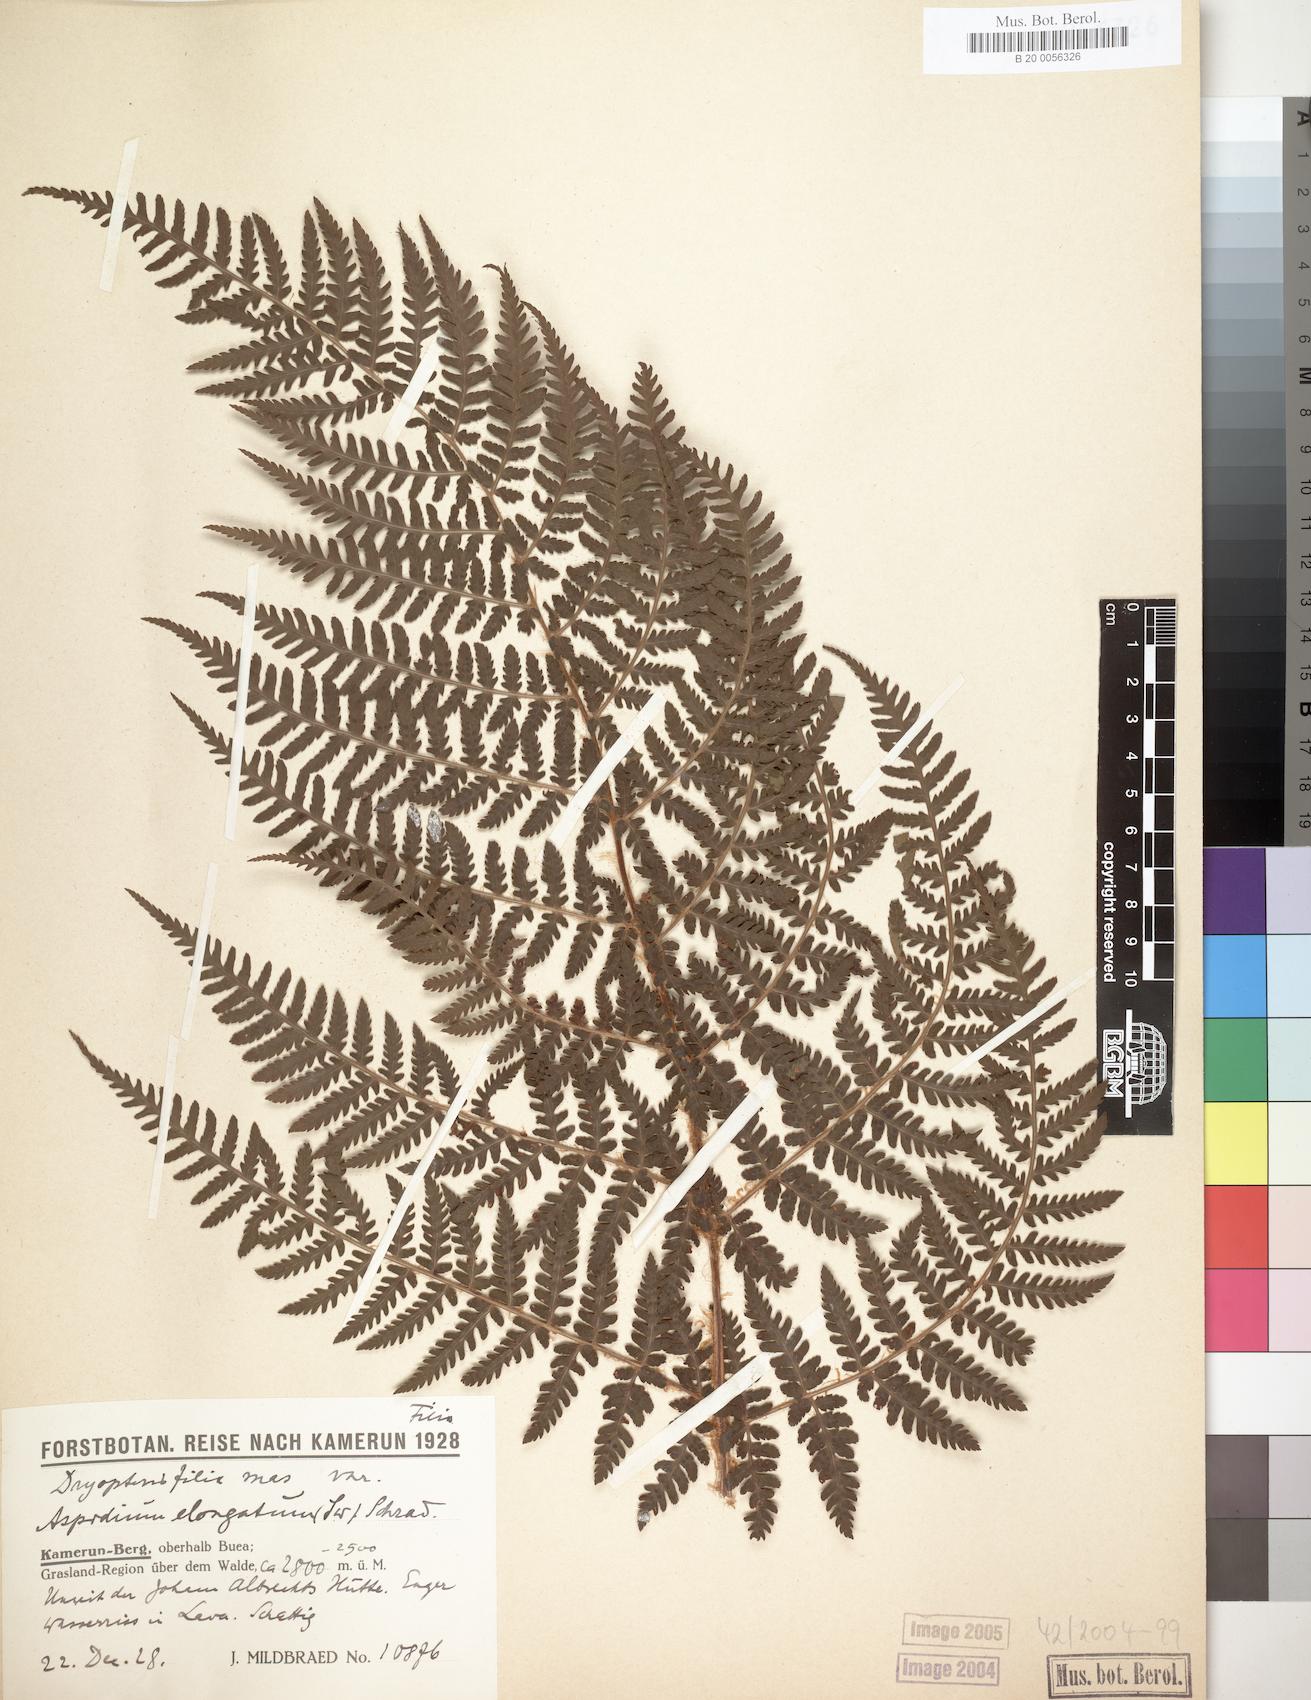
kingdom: Plantae
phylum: Tracheophyta
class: Polypodiopsida
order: Polypodiales
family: Dryopteridaceae
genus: Dryopteris
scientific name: Dryopteris filix-mas
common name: Male fern
